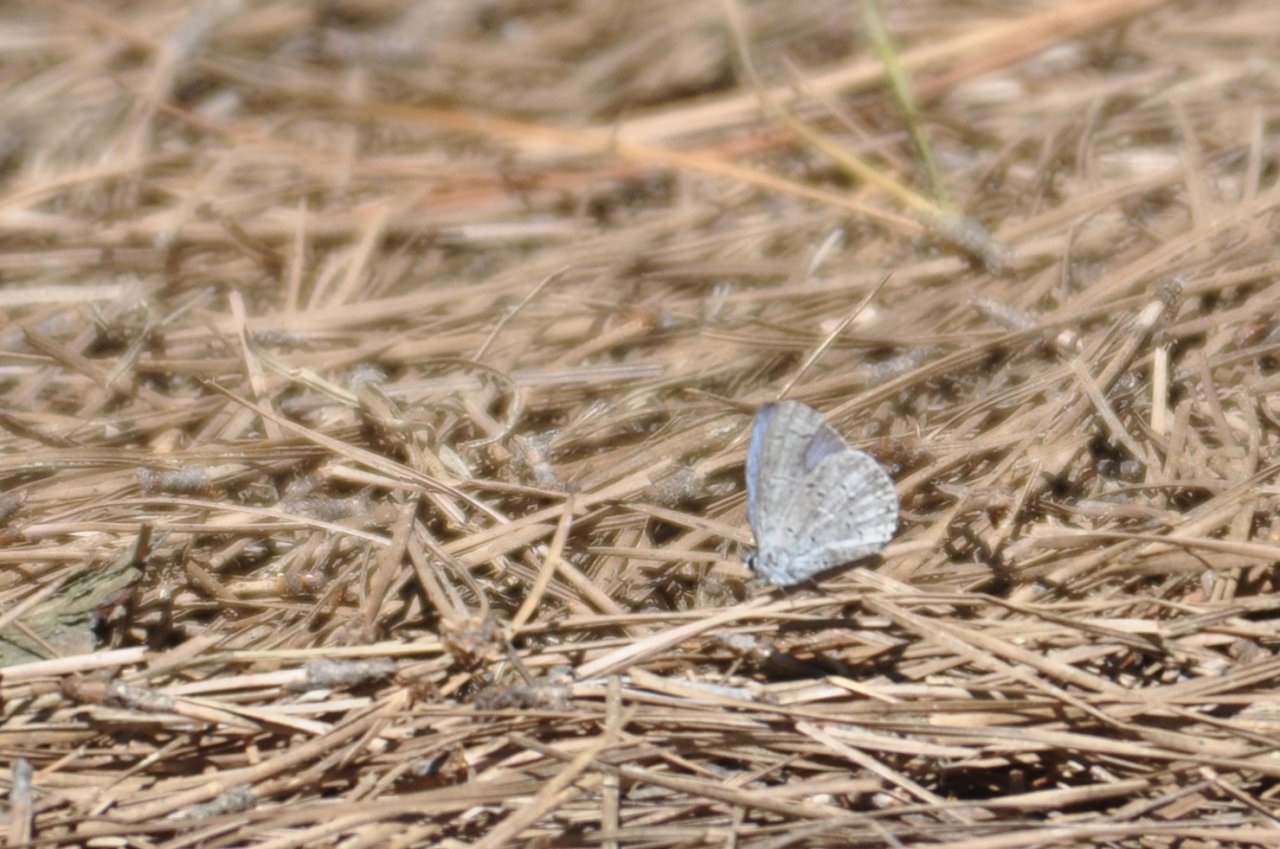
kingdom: Animalia
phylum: Arthropoda
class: Insecta
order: Lepidoptera
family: Lycaenidae
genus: Cyaniris
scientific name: Cyaniris neglecta
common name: Summer Azure
